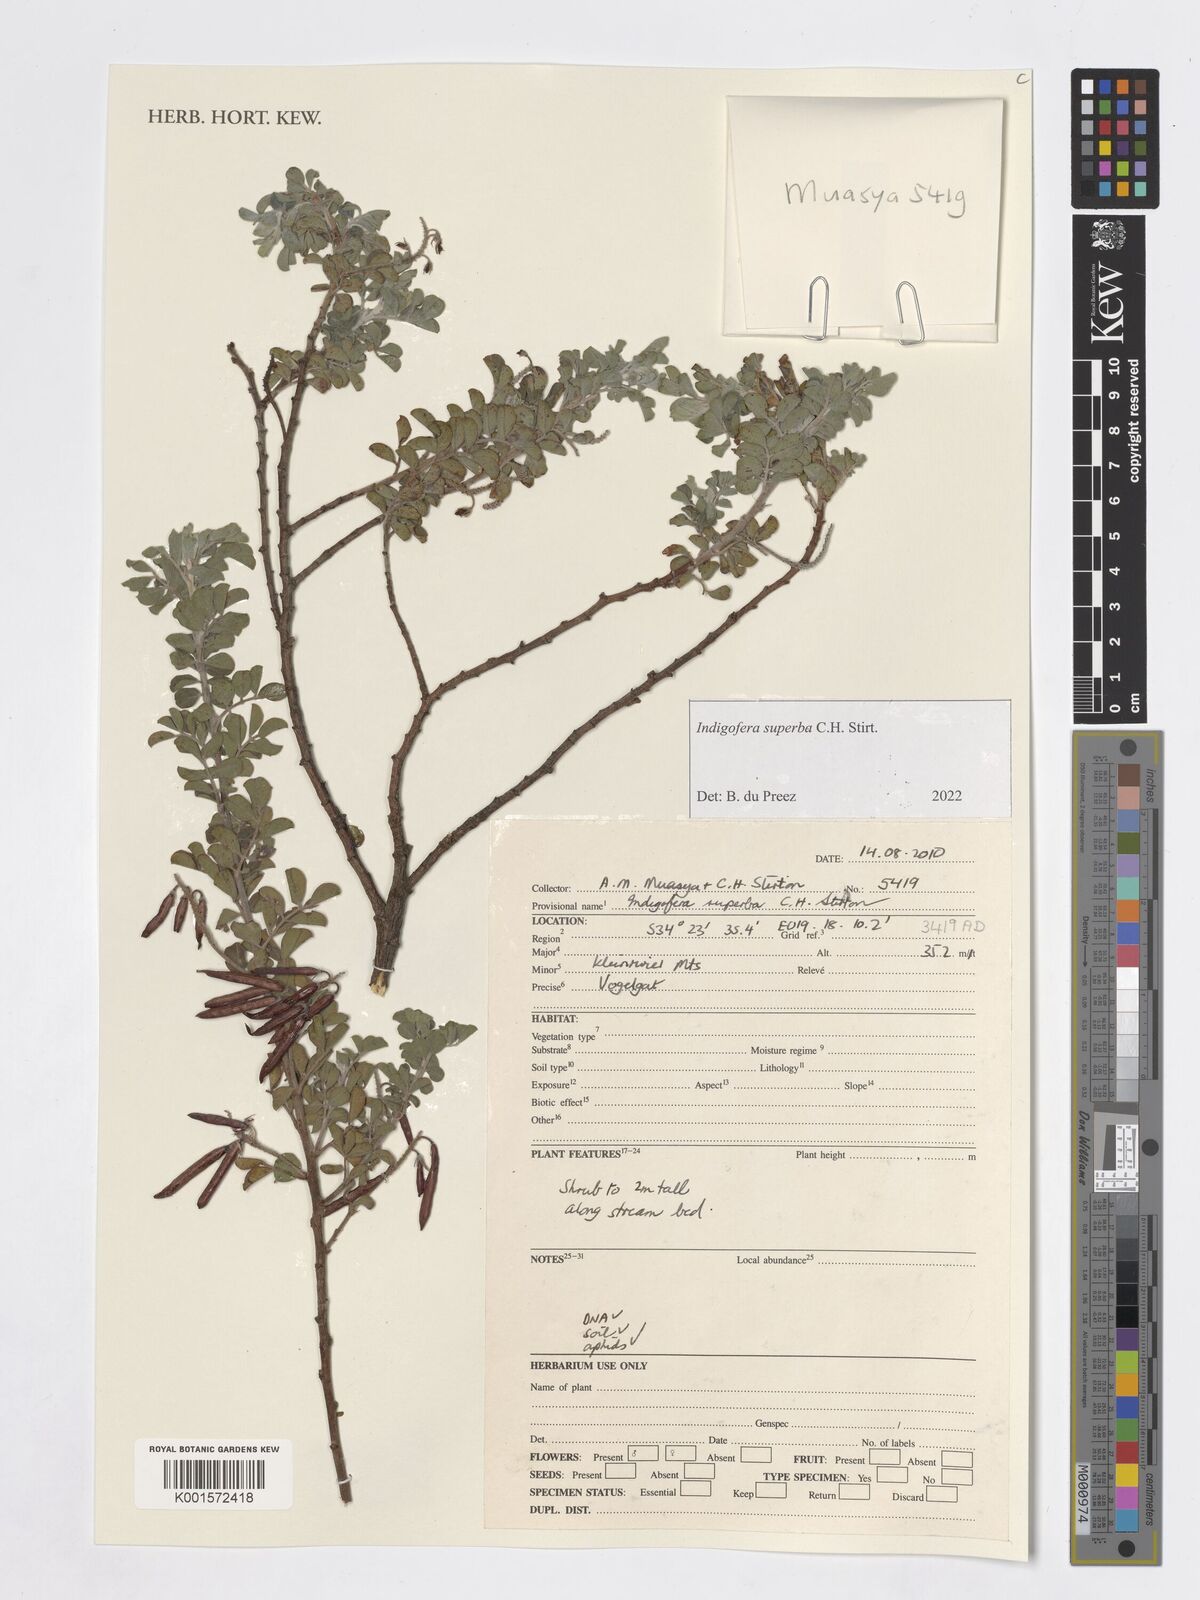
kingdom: Plantae
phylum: Tracheophyta
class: Magnoliopsida
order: Fabales
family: Fabaceae
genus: Indigofera
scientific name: Indigofera superba
